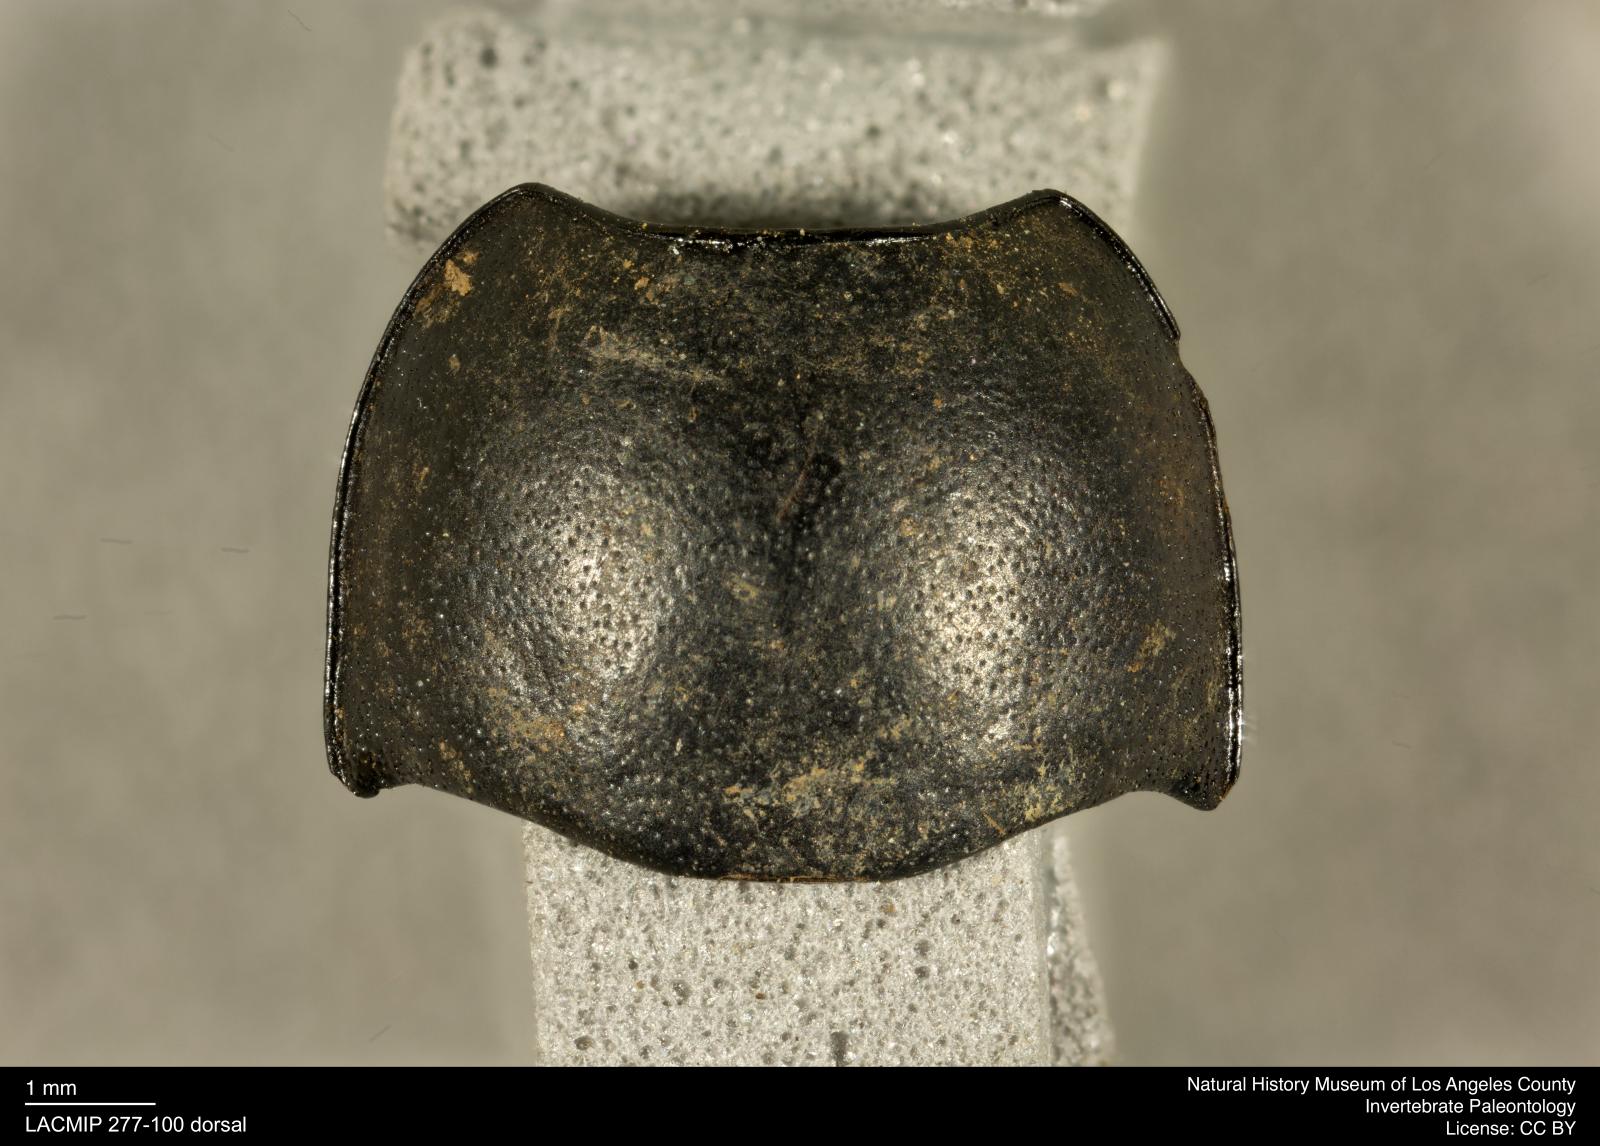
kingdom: Animalia
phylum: Arthropoda
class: Insecta
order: Coleoptera
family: Tenebrionidae
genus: Coniontis
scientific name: Coniontis abdominalis
